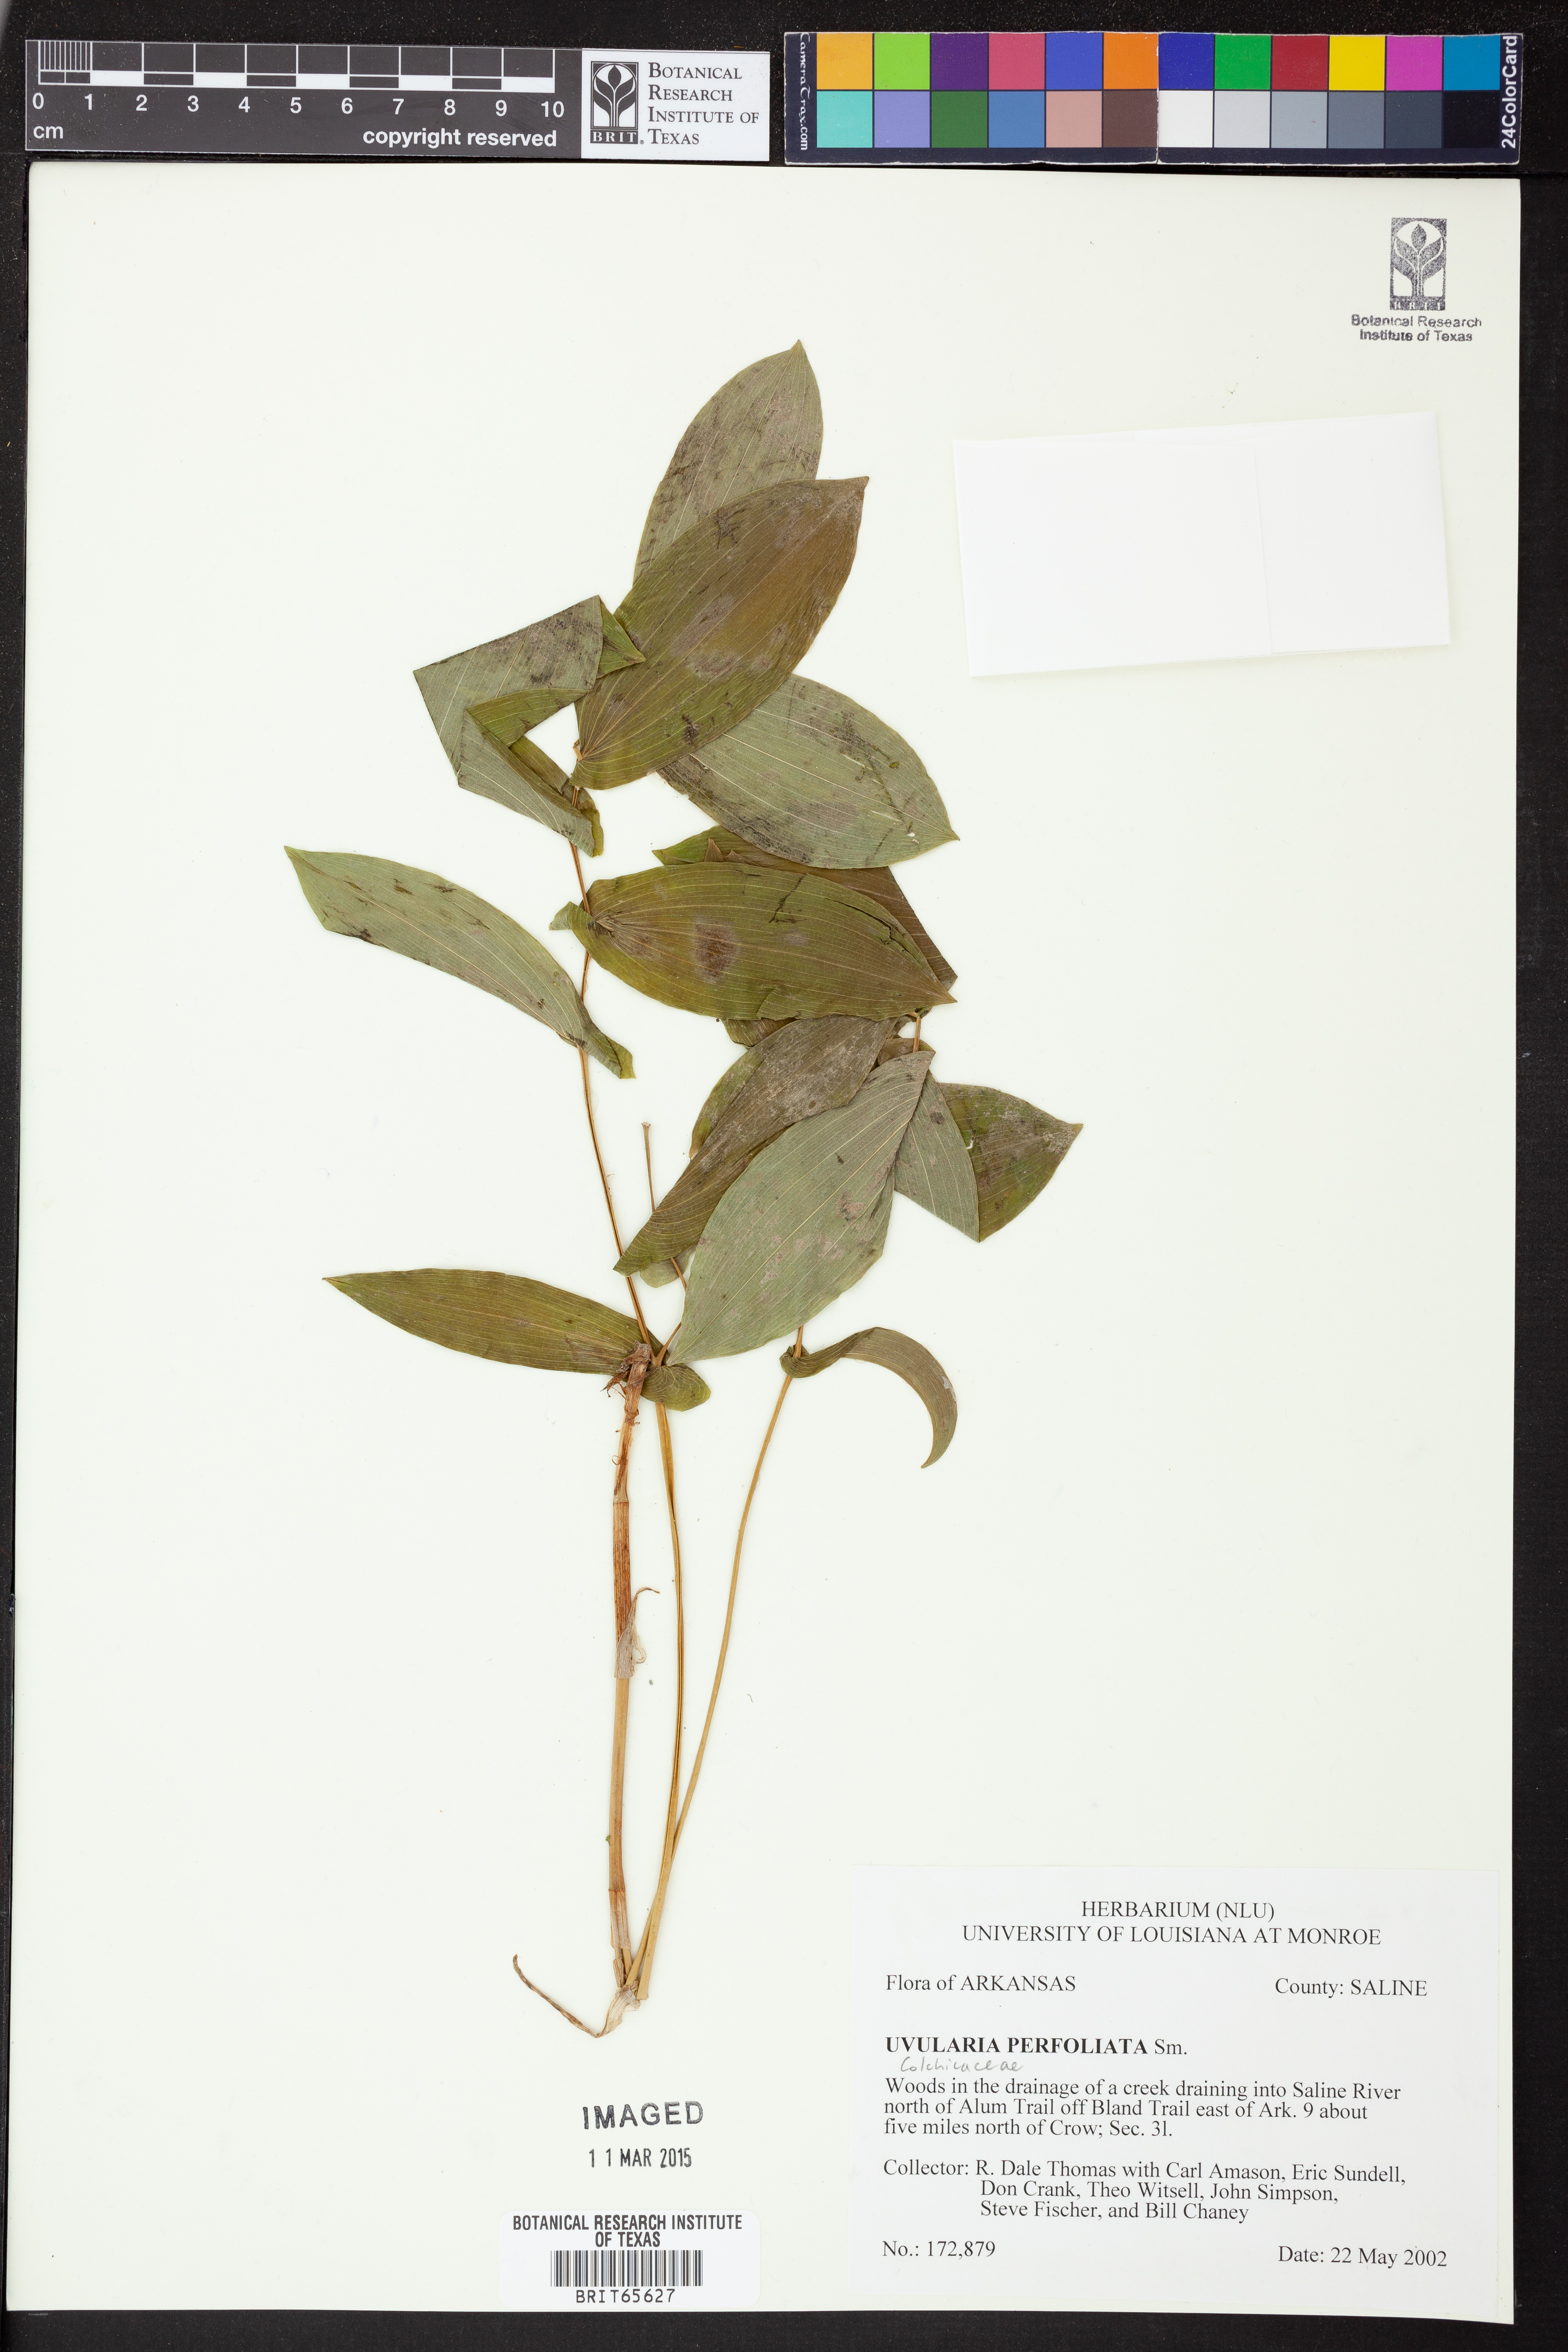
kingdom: Plantae
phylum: Tracheophyta
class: Liliopsida
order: Liliales
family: Colchicaceae
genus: Uvularia
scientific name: Uvularia perfoliata
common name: Perfoliate bellwort
